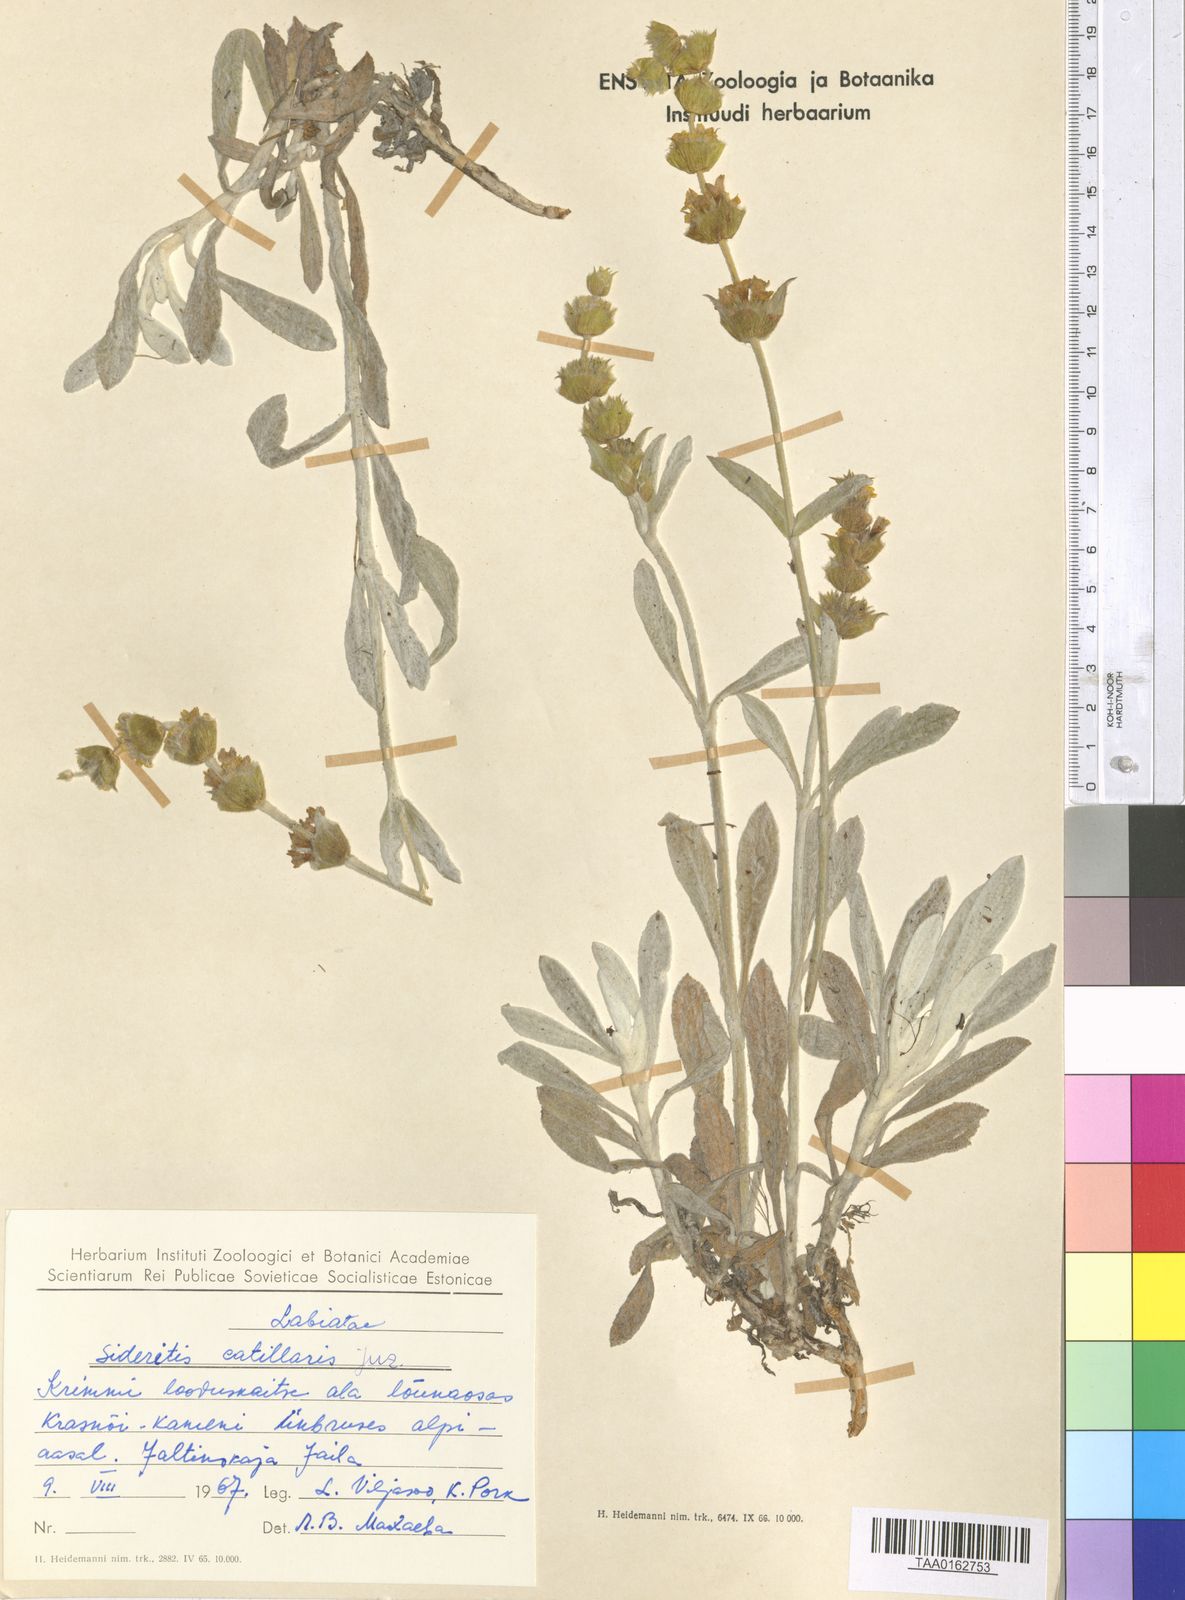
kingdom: Plantae
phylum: Tracheophyta
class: Magnoliopsida
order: Lamiales
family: Lamiaceae
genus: Sideritis
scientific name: Sideritis catillaris
